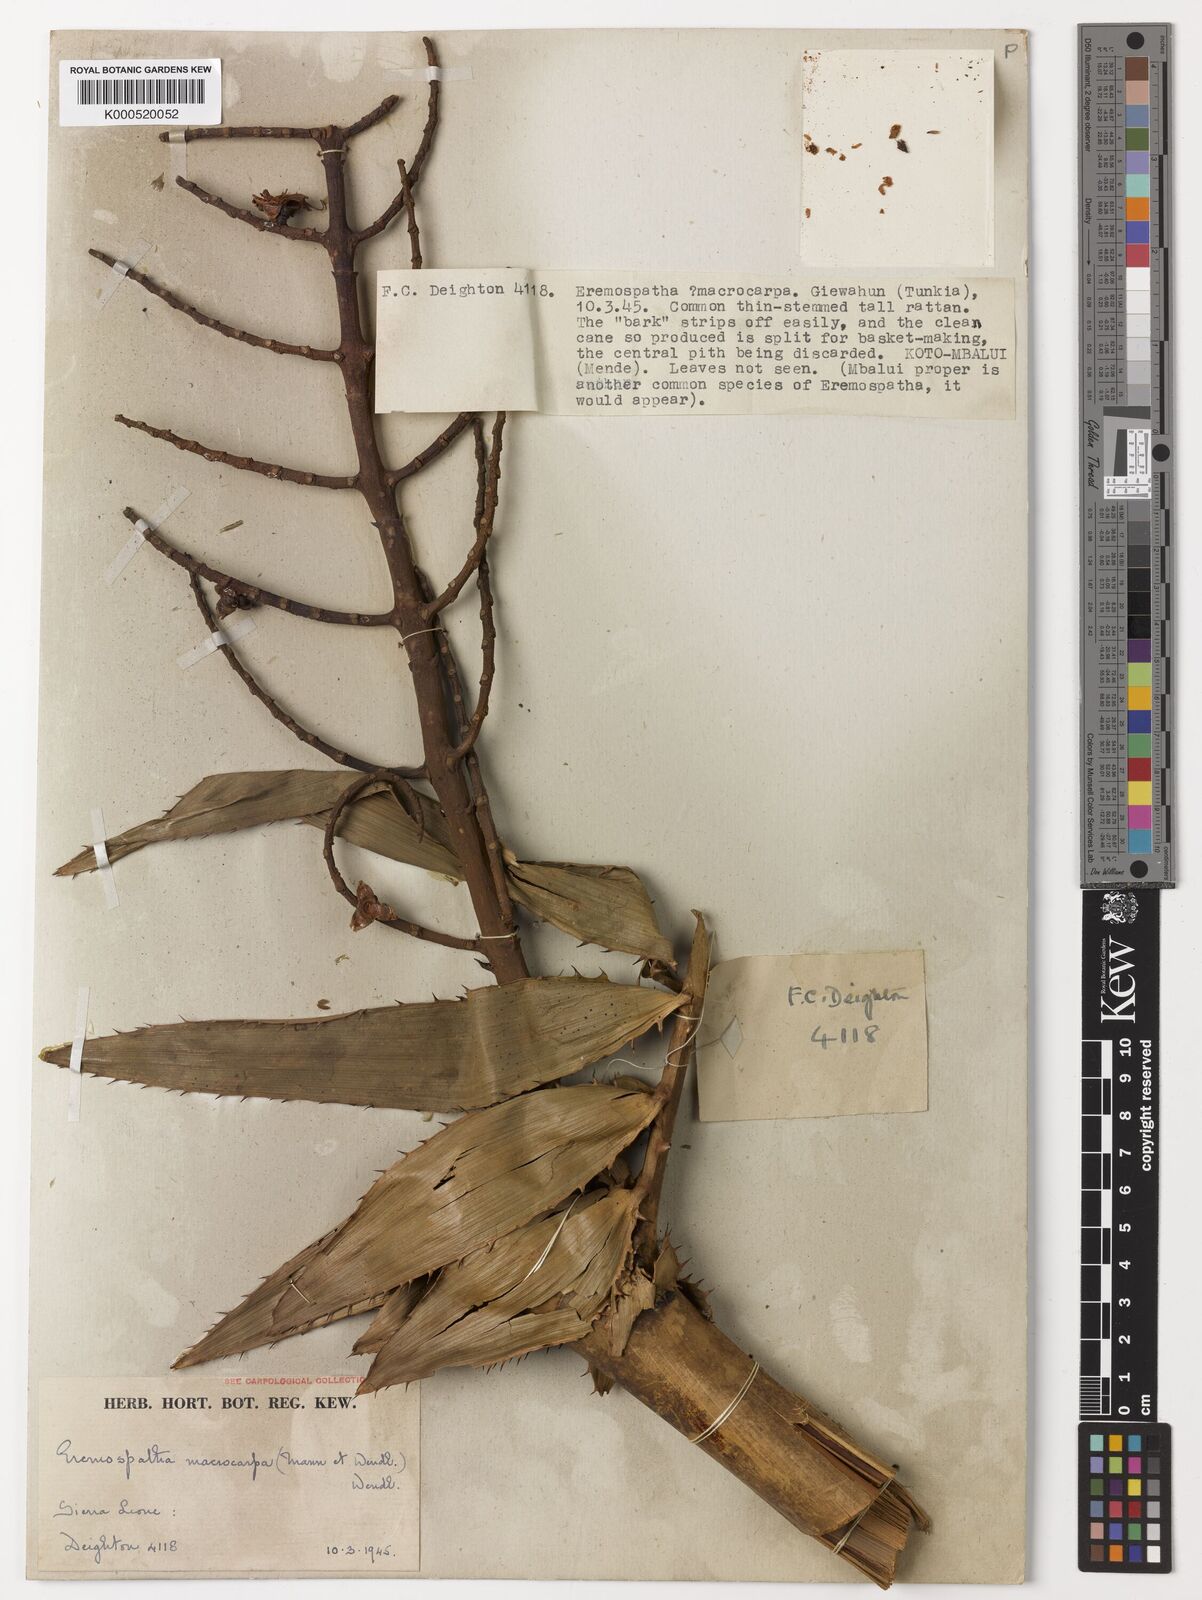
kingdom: Plantae
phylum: Tracheophyta
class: Liliopsida
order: Arecales
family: Arecaceae
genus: Eremospatha
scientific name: Eremospatha
